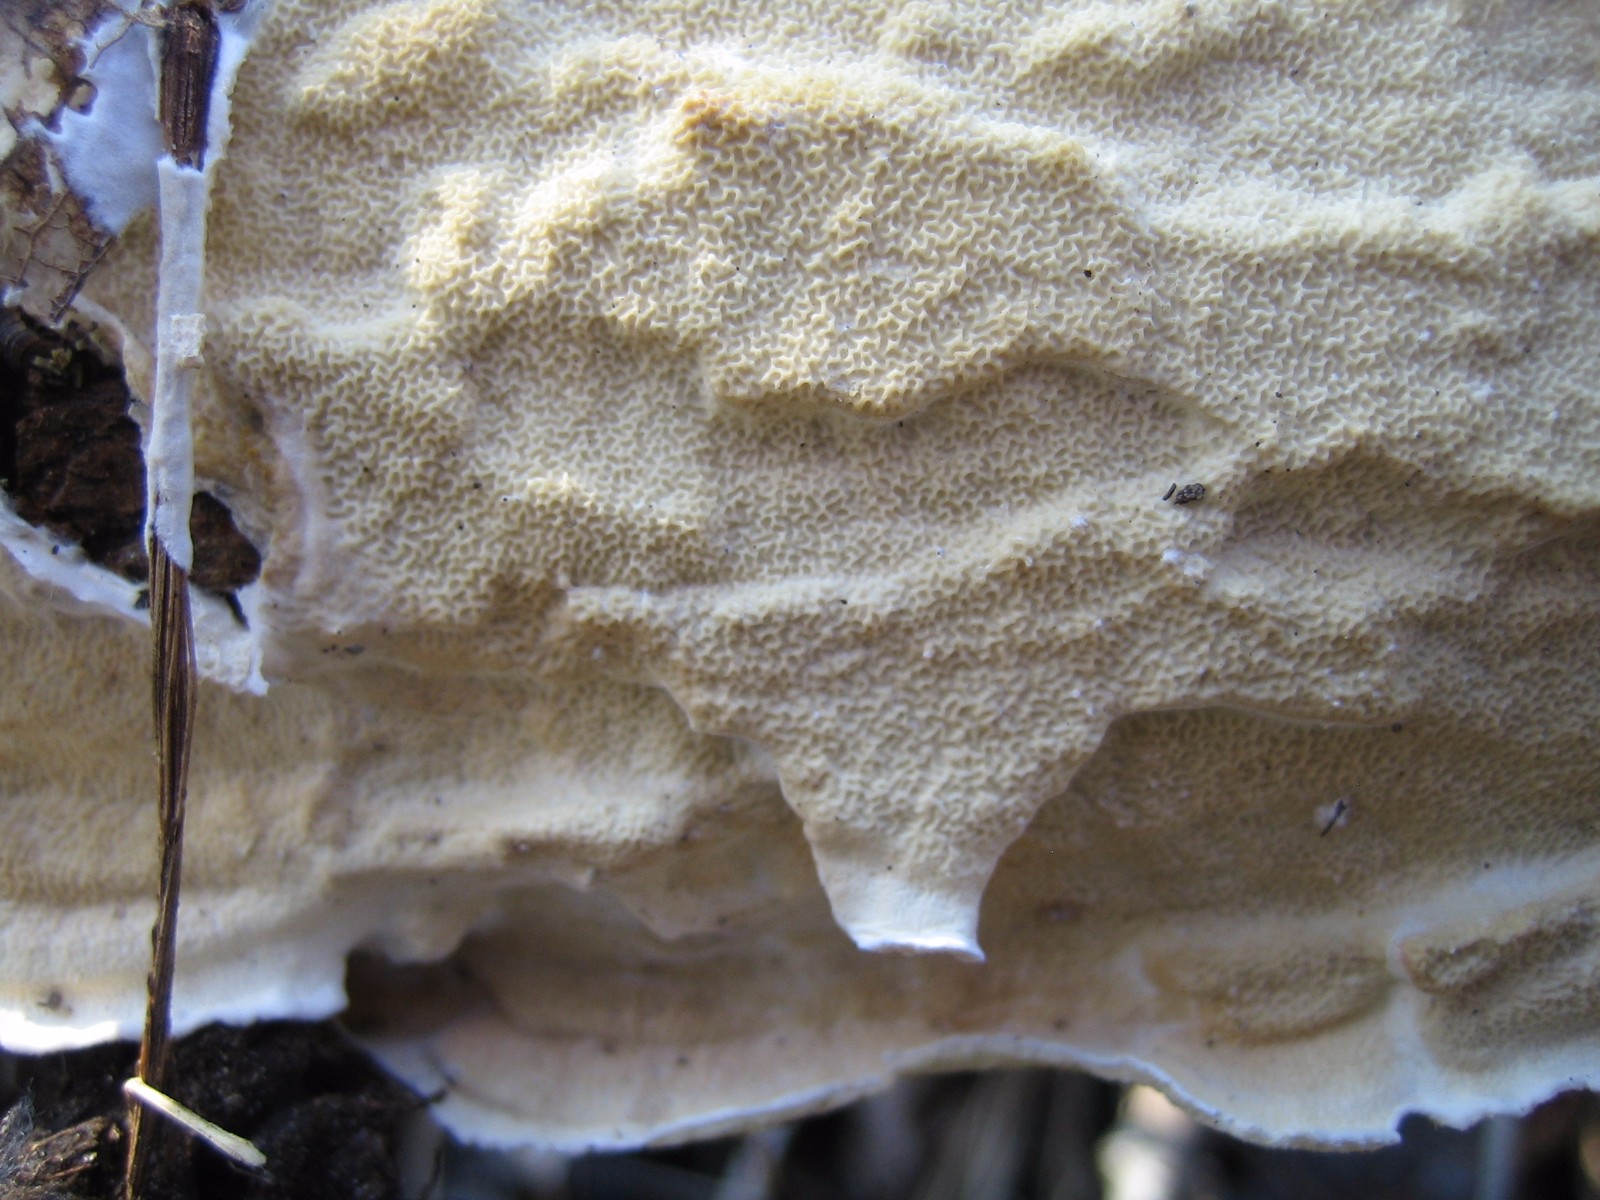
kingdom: Fungi
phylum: Basidiomycota
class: Agaricomycetes
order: Polyporales
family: Irpicaceae
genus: Byssomerulius
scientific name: Byssomerulius corium
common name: læder-åresvamp
